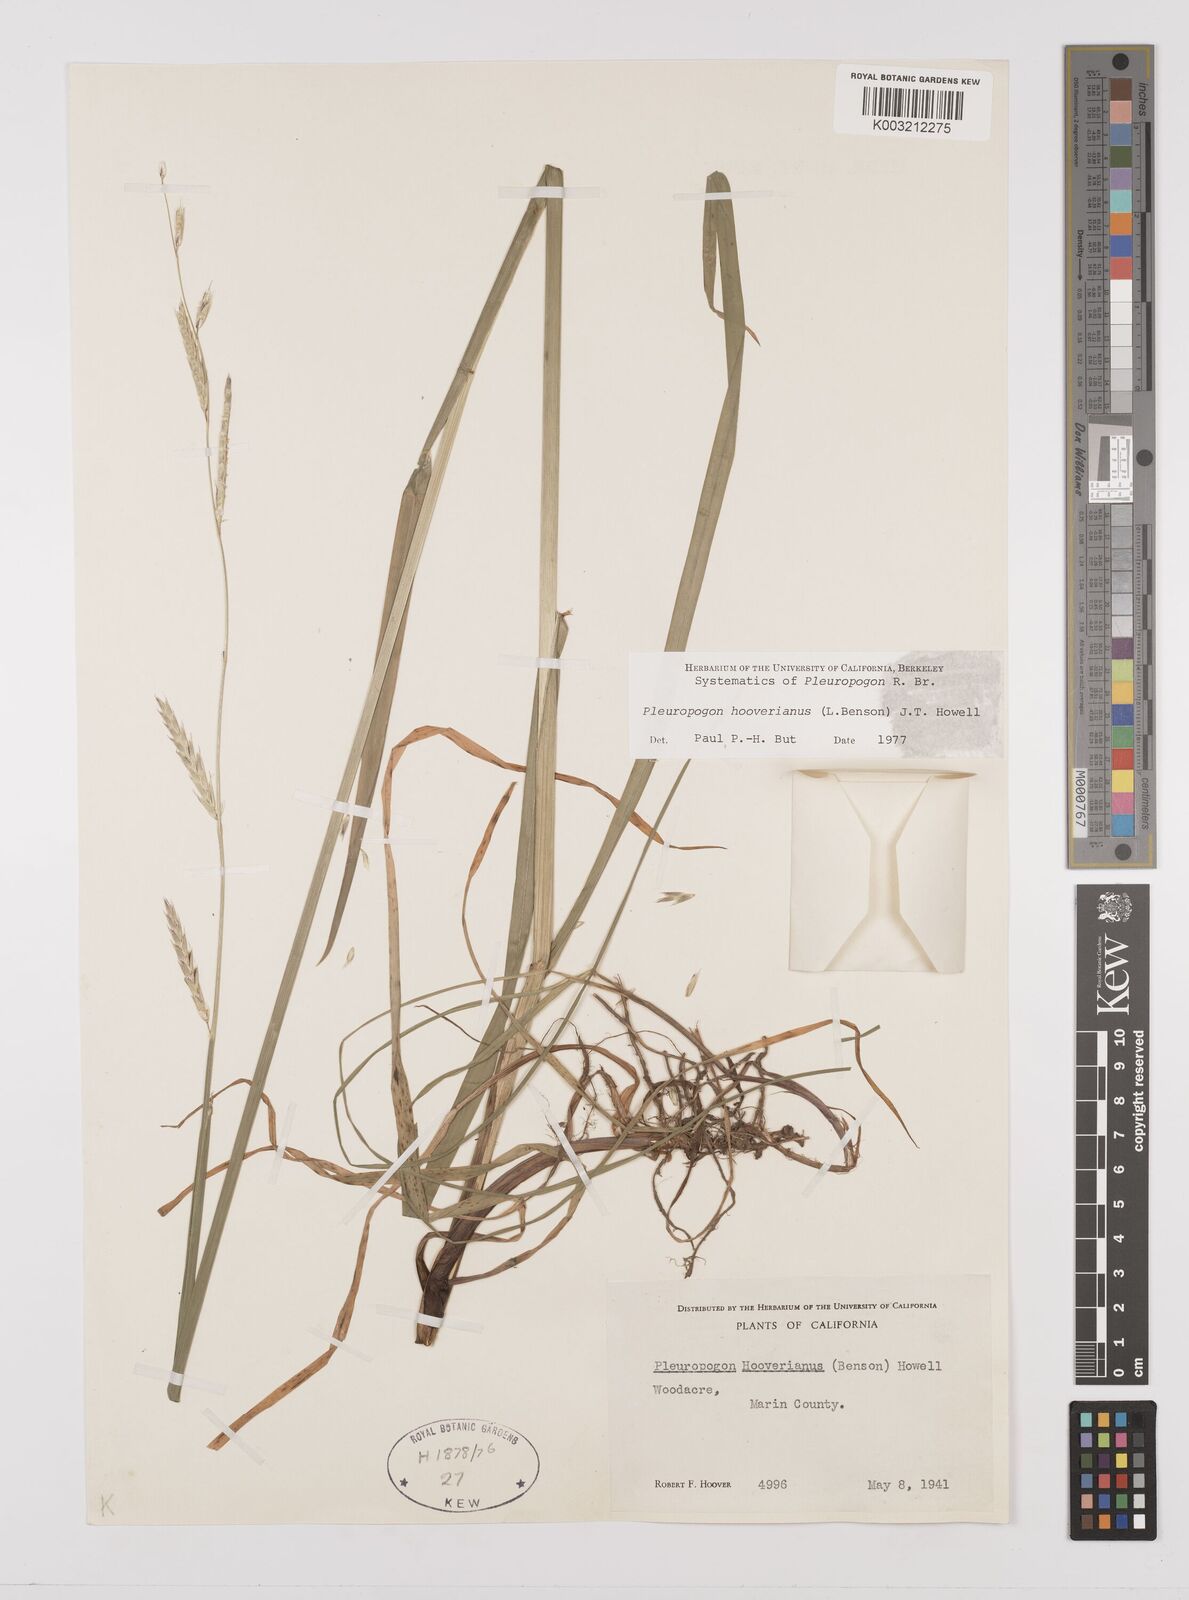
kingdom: Plantae
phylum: Tracheophyta
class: Liliopsida
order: Poales
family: Poaceae
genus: Pleuropogon
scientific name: Pleuropogon hooverianus
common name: North coast semaphore grass
